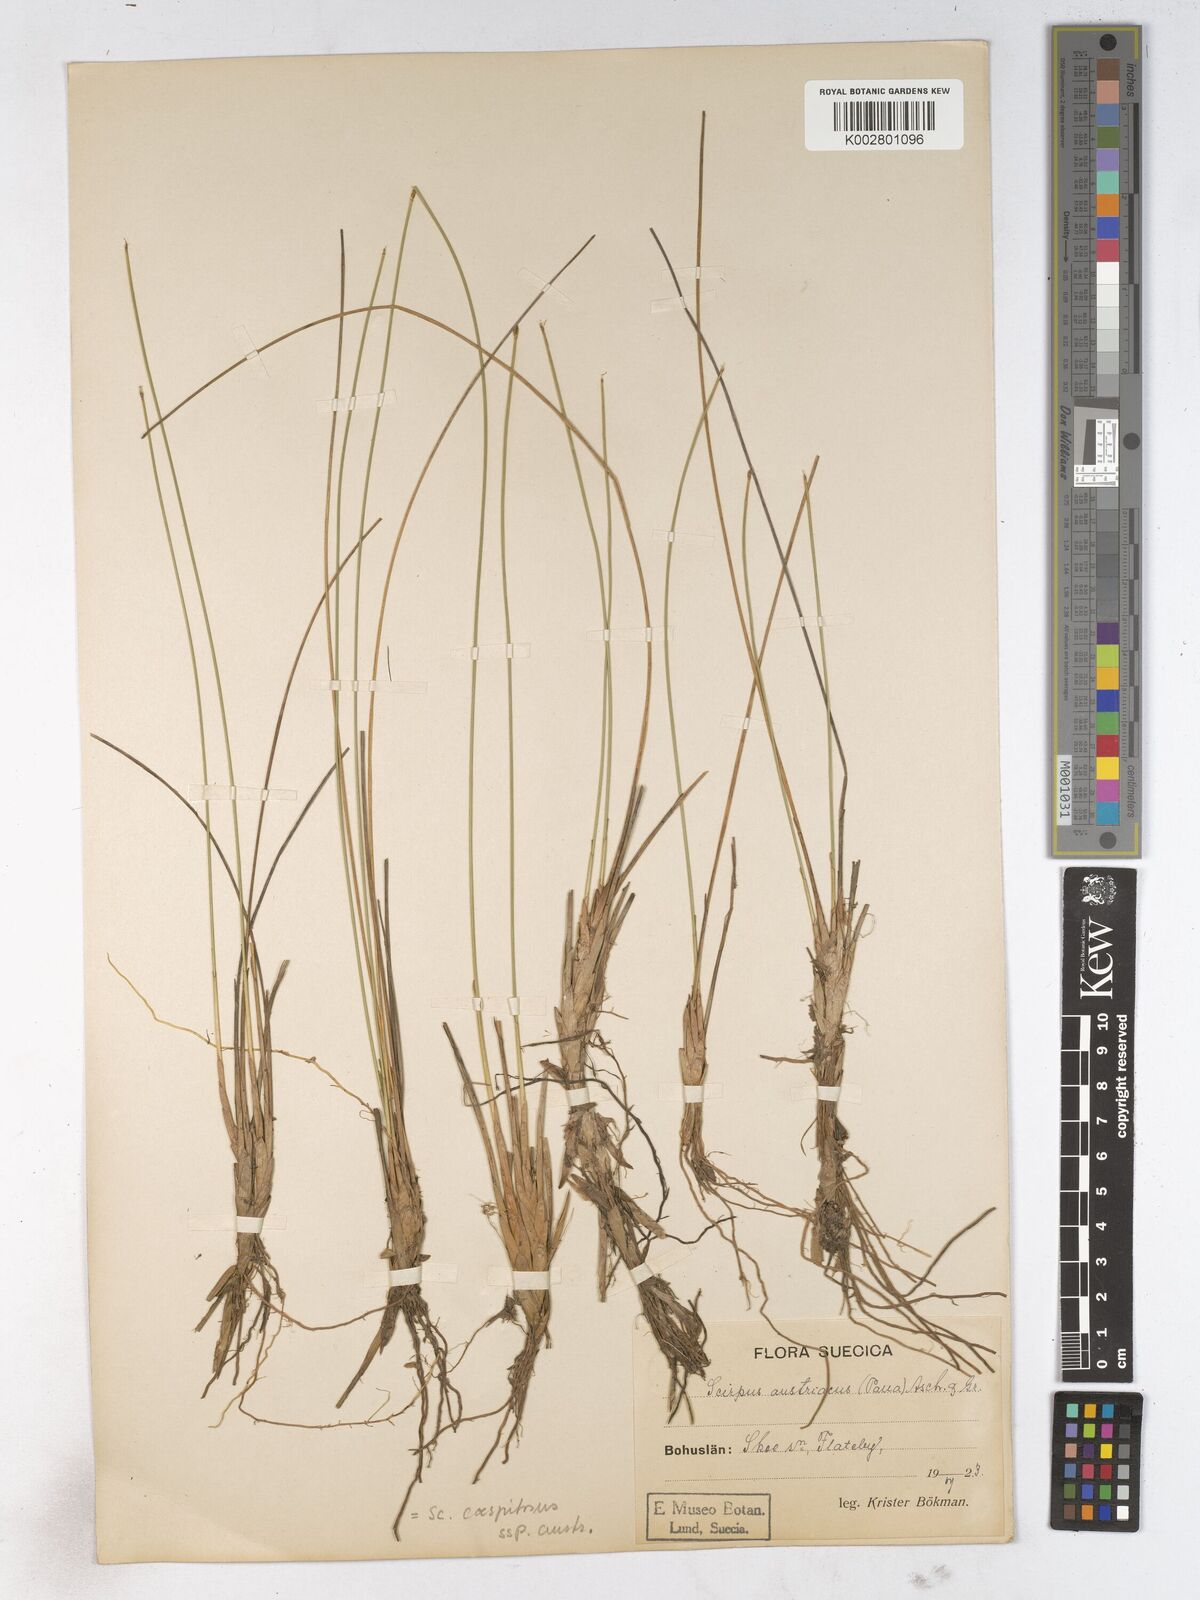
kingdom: Plantae
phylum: Tracheophyta
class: Liliopsida
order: Poales
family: Cyperaceae
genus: Trichophorum
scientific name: Trichophorum cespitosum
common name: Cespitose bulrush
